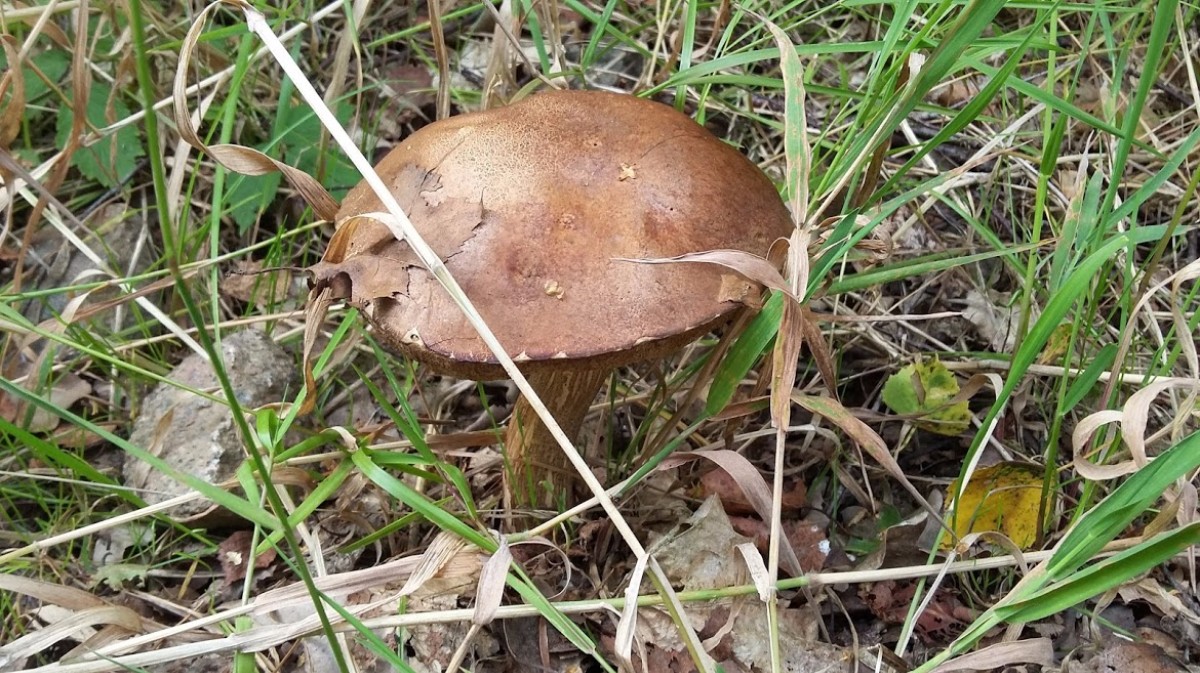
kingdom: Fungi
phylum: Basidiomycota
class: Agaricomycetes
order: Boletales
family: Boletaceae
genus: Leccinum
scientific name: Leccinum
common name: skælrørhat
